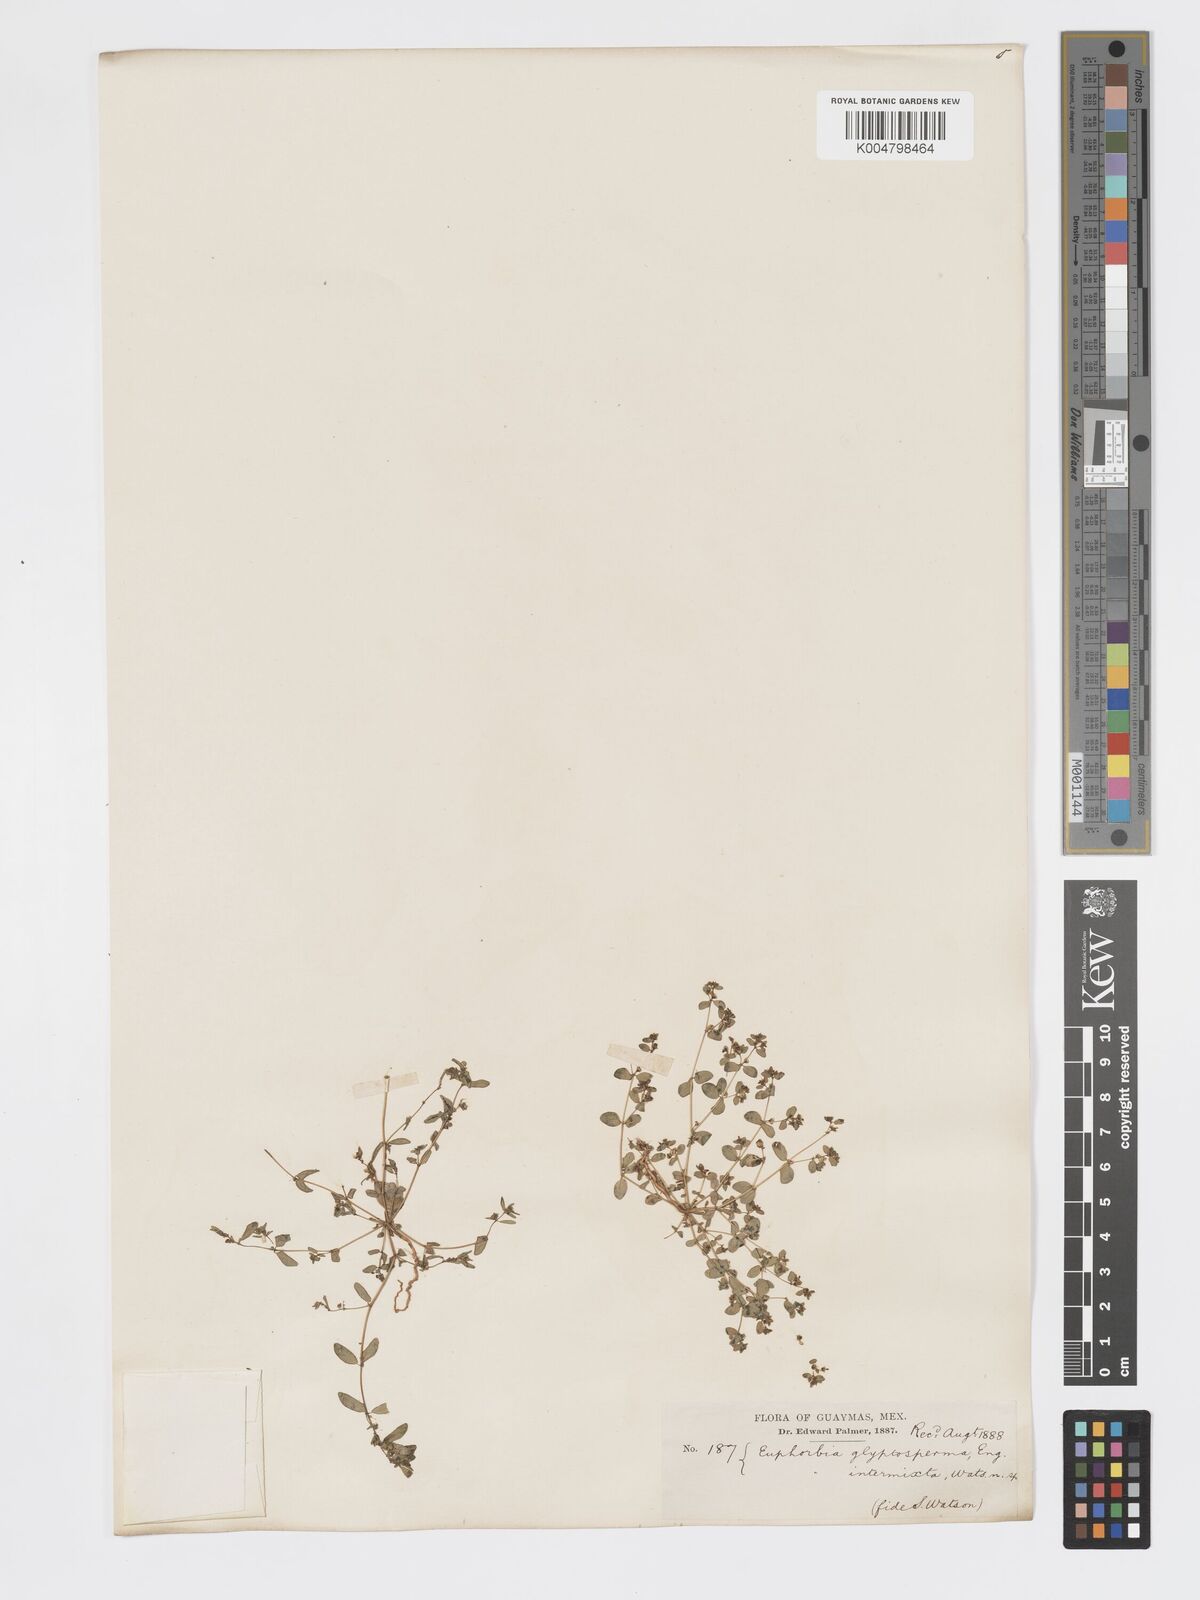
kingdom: Plantae
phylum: Tracheophyta
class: Magnoliopsida
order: Malpighiales
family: Euphorbiaceae
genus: Euphorbia
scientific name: Euphorbia glyptosperma
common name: Corrugate-seeded spurge
